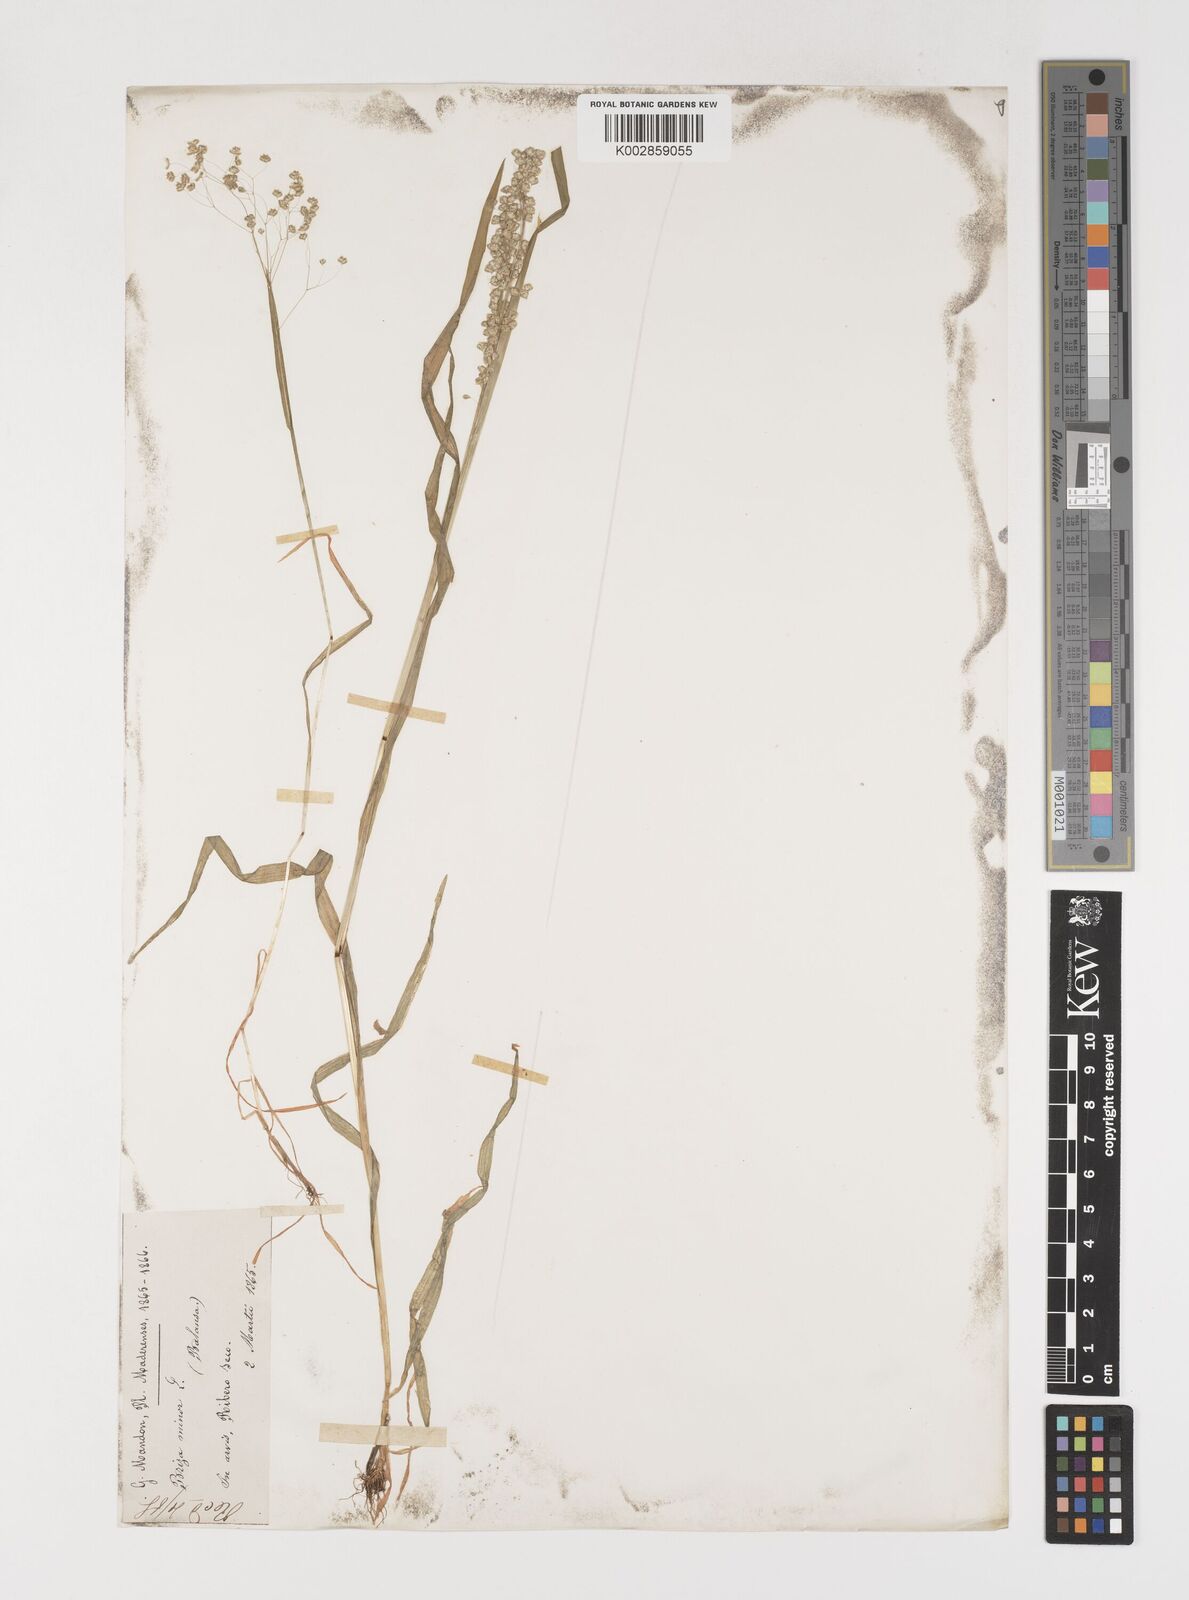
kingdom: Plantae
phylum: Tracheophyta
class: Liliopsida
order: Poales
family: Poaceae
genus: Briza
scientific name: Briza minor
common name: Lesser quaking-grass
